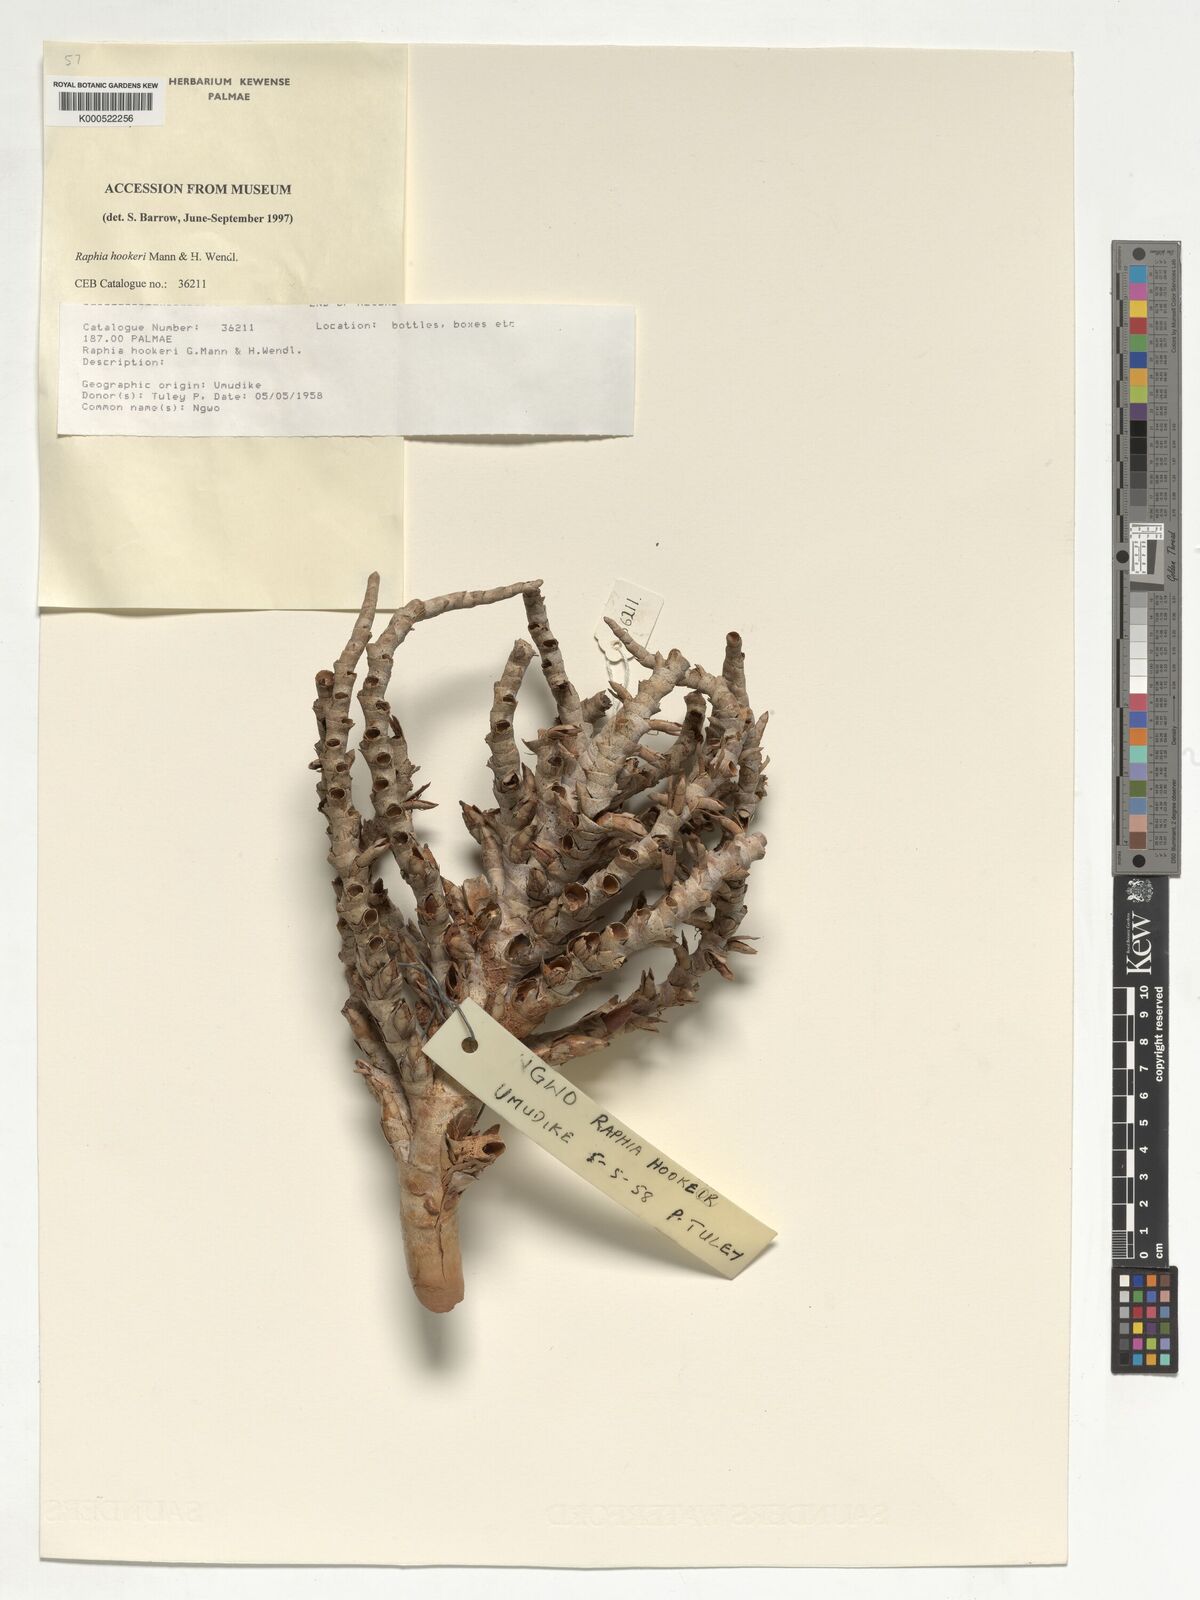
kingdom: Plantae
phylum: Tracheophyta
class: Liliopsida
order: Arecales
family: Arecaceae
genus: Raphia
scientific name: Raphia hookeri
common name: Wine palm
